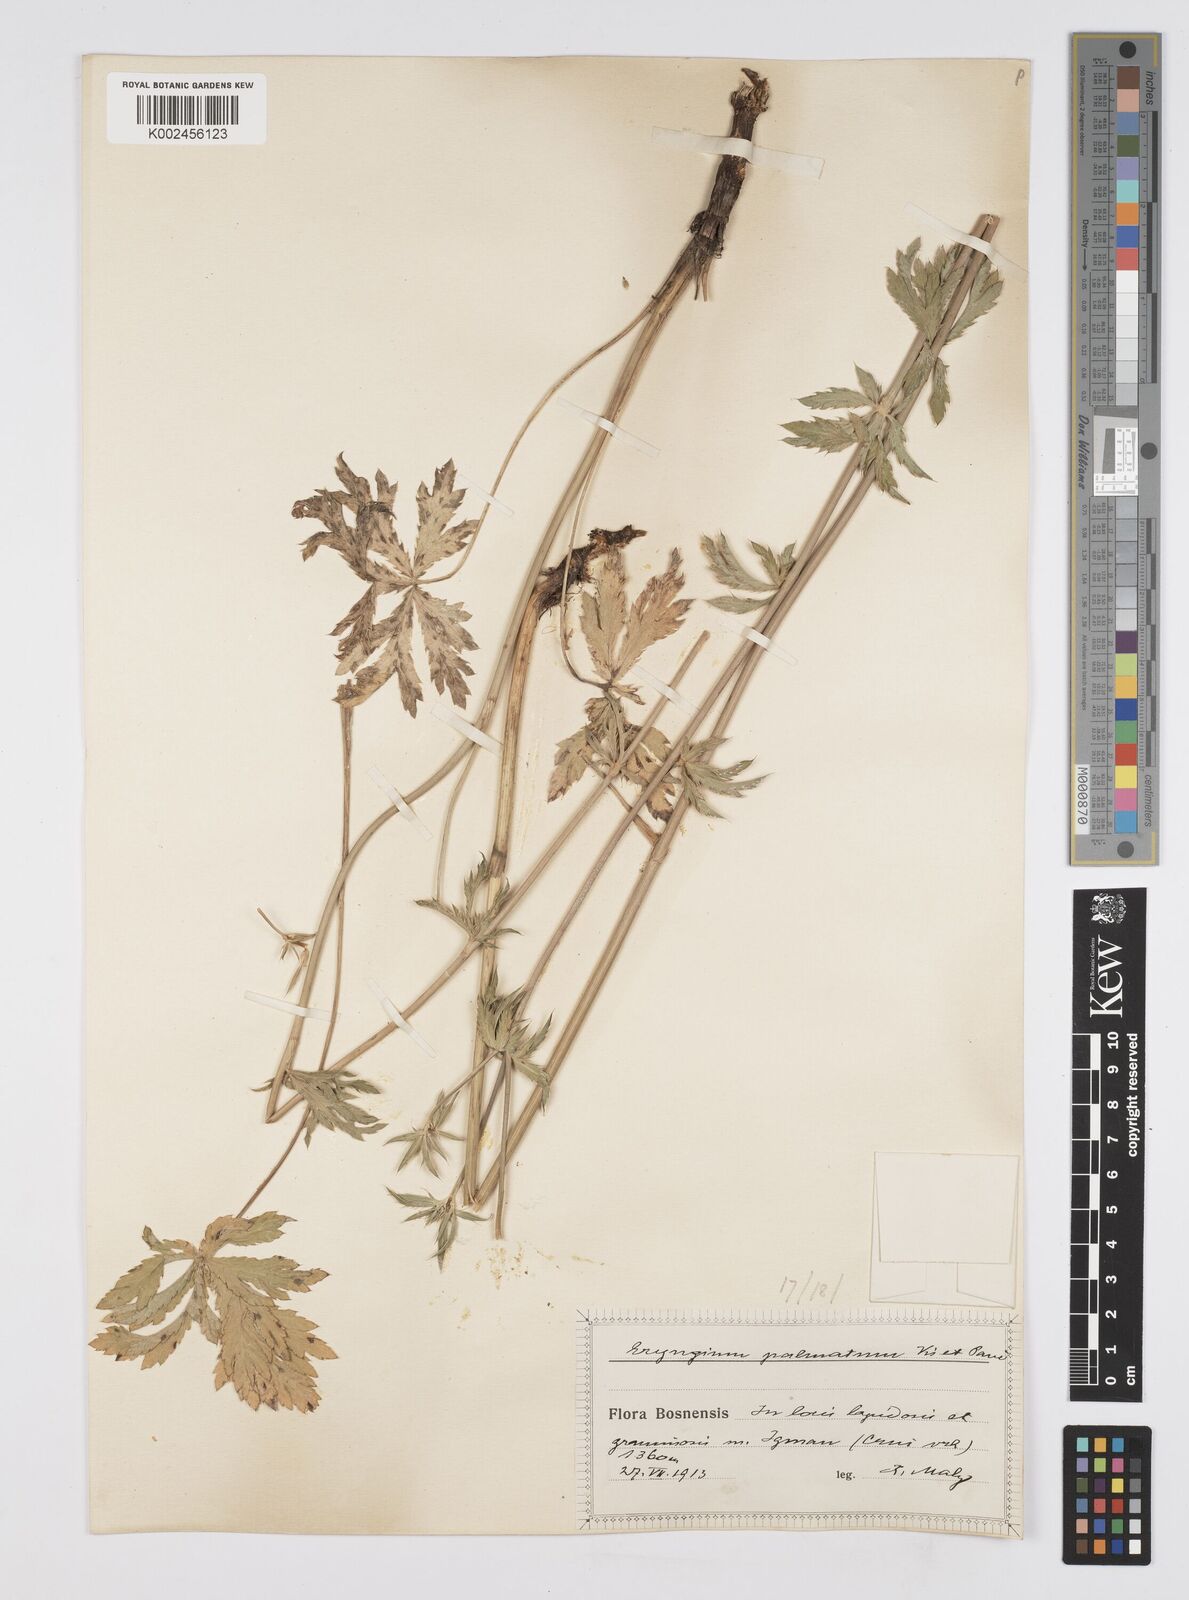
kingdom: Plantae
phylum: Tracheophyta
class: Magnoliopsida
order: Apiales
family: Apiaceae
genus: Eryngium
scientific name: Eryngium palmatum
